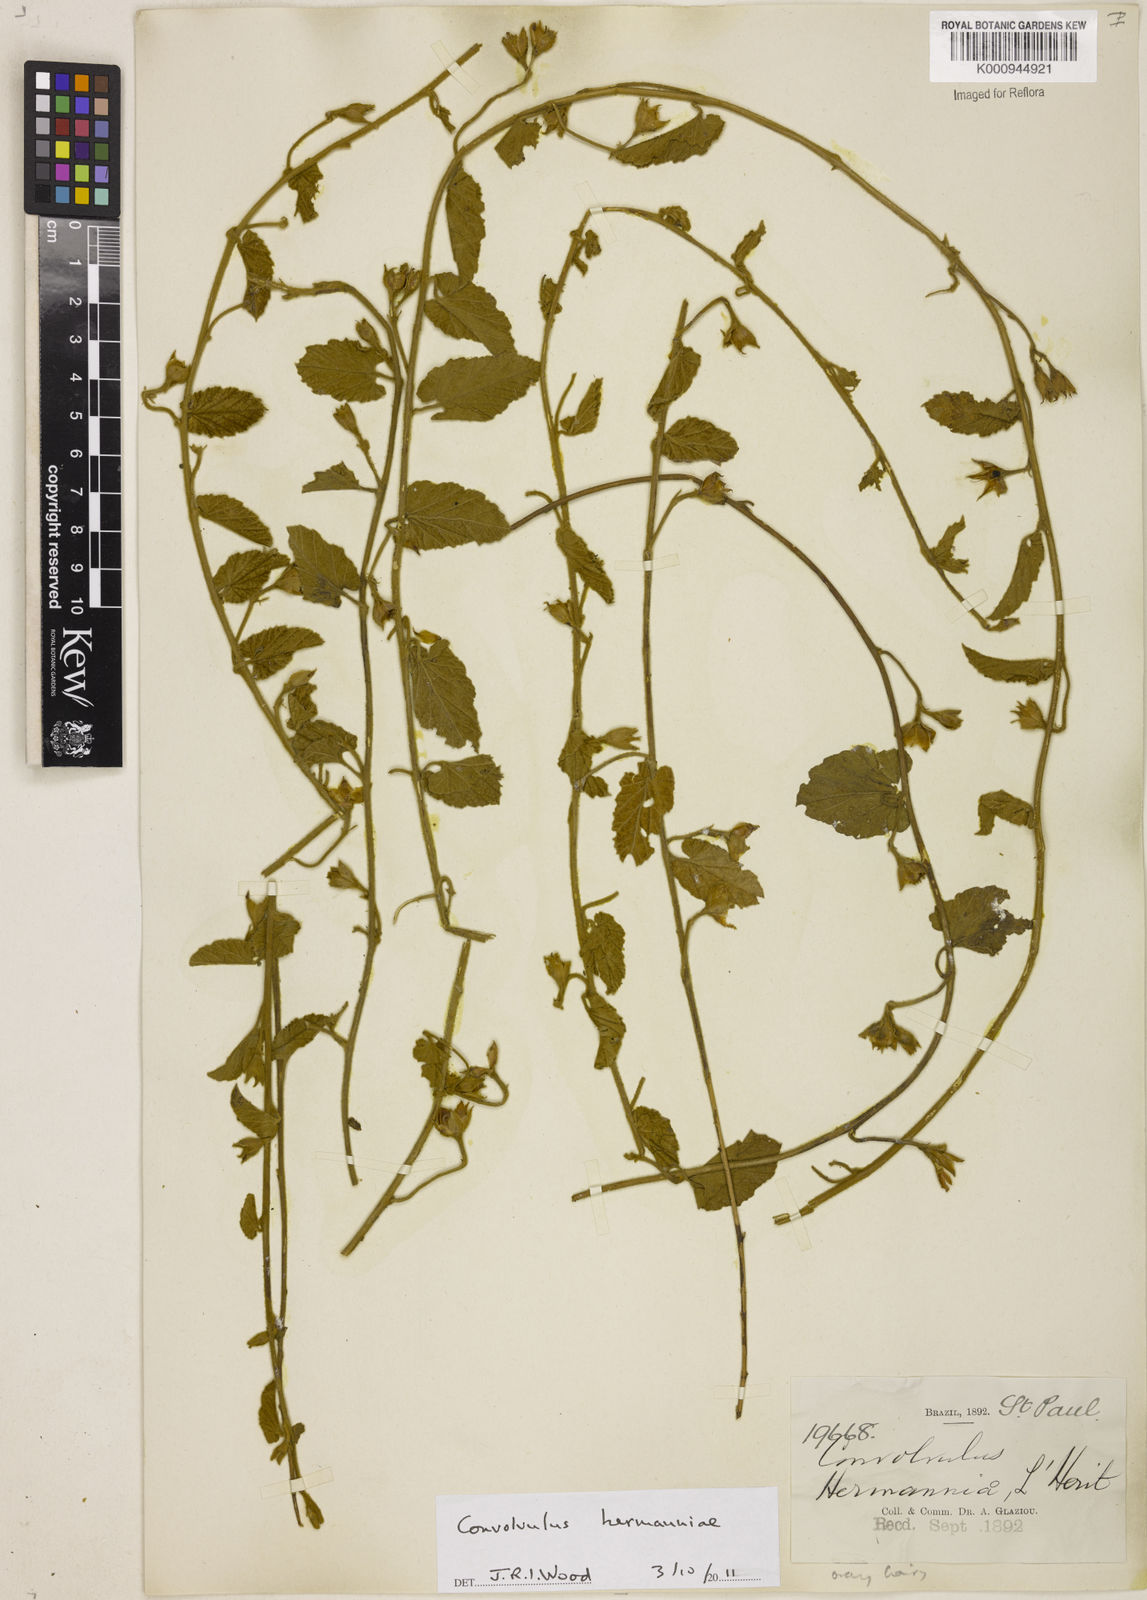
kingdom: Plantae
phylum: Tracheophyta
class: Magnoliopsida
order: Solanales
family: Convolvulaceae
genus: Convolvulus
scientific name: Convolvulus
